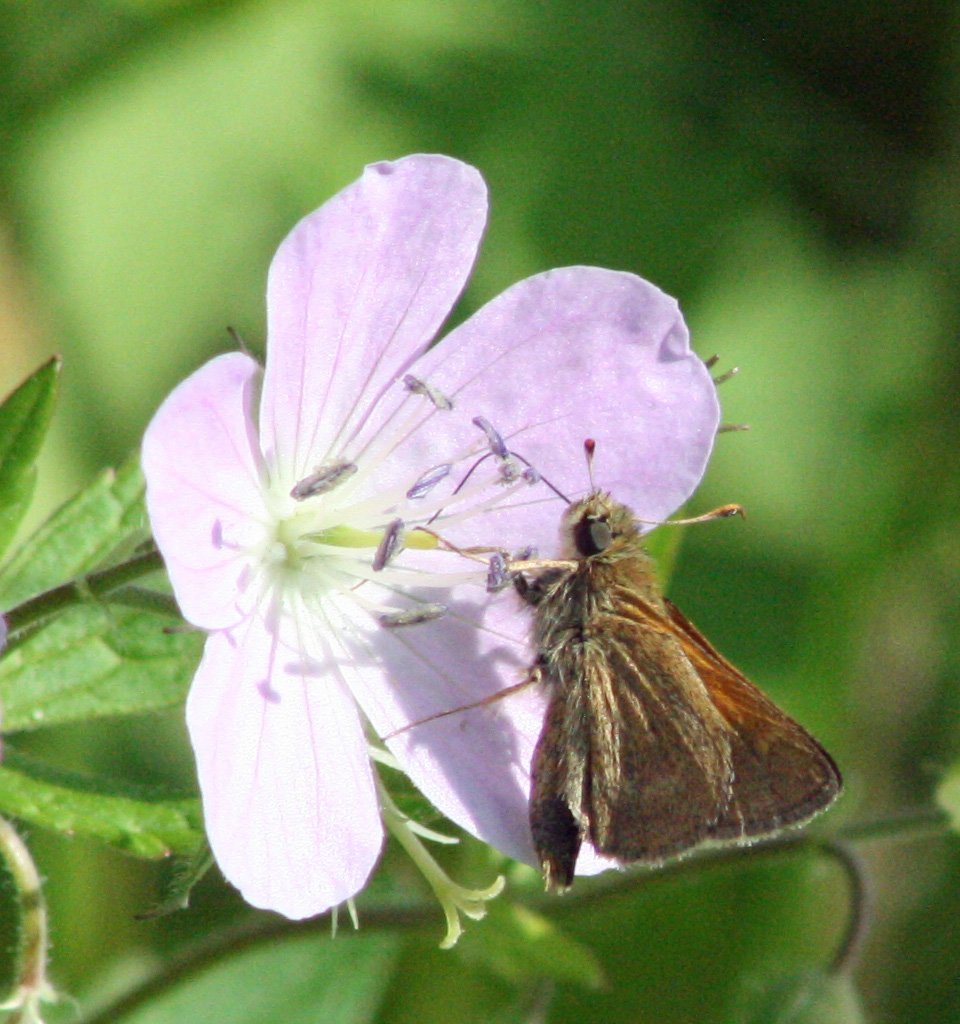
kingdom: Animalia
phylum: Arthropoda
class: Insecta
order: Lepidoptera
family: Hesperiidae
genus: Polites
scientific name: Polites themistocles
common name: Tawny-edged Skipper
